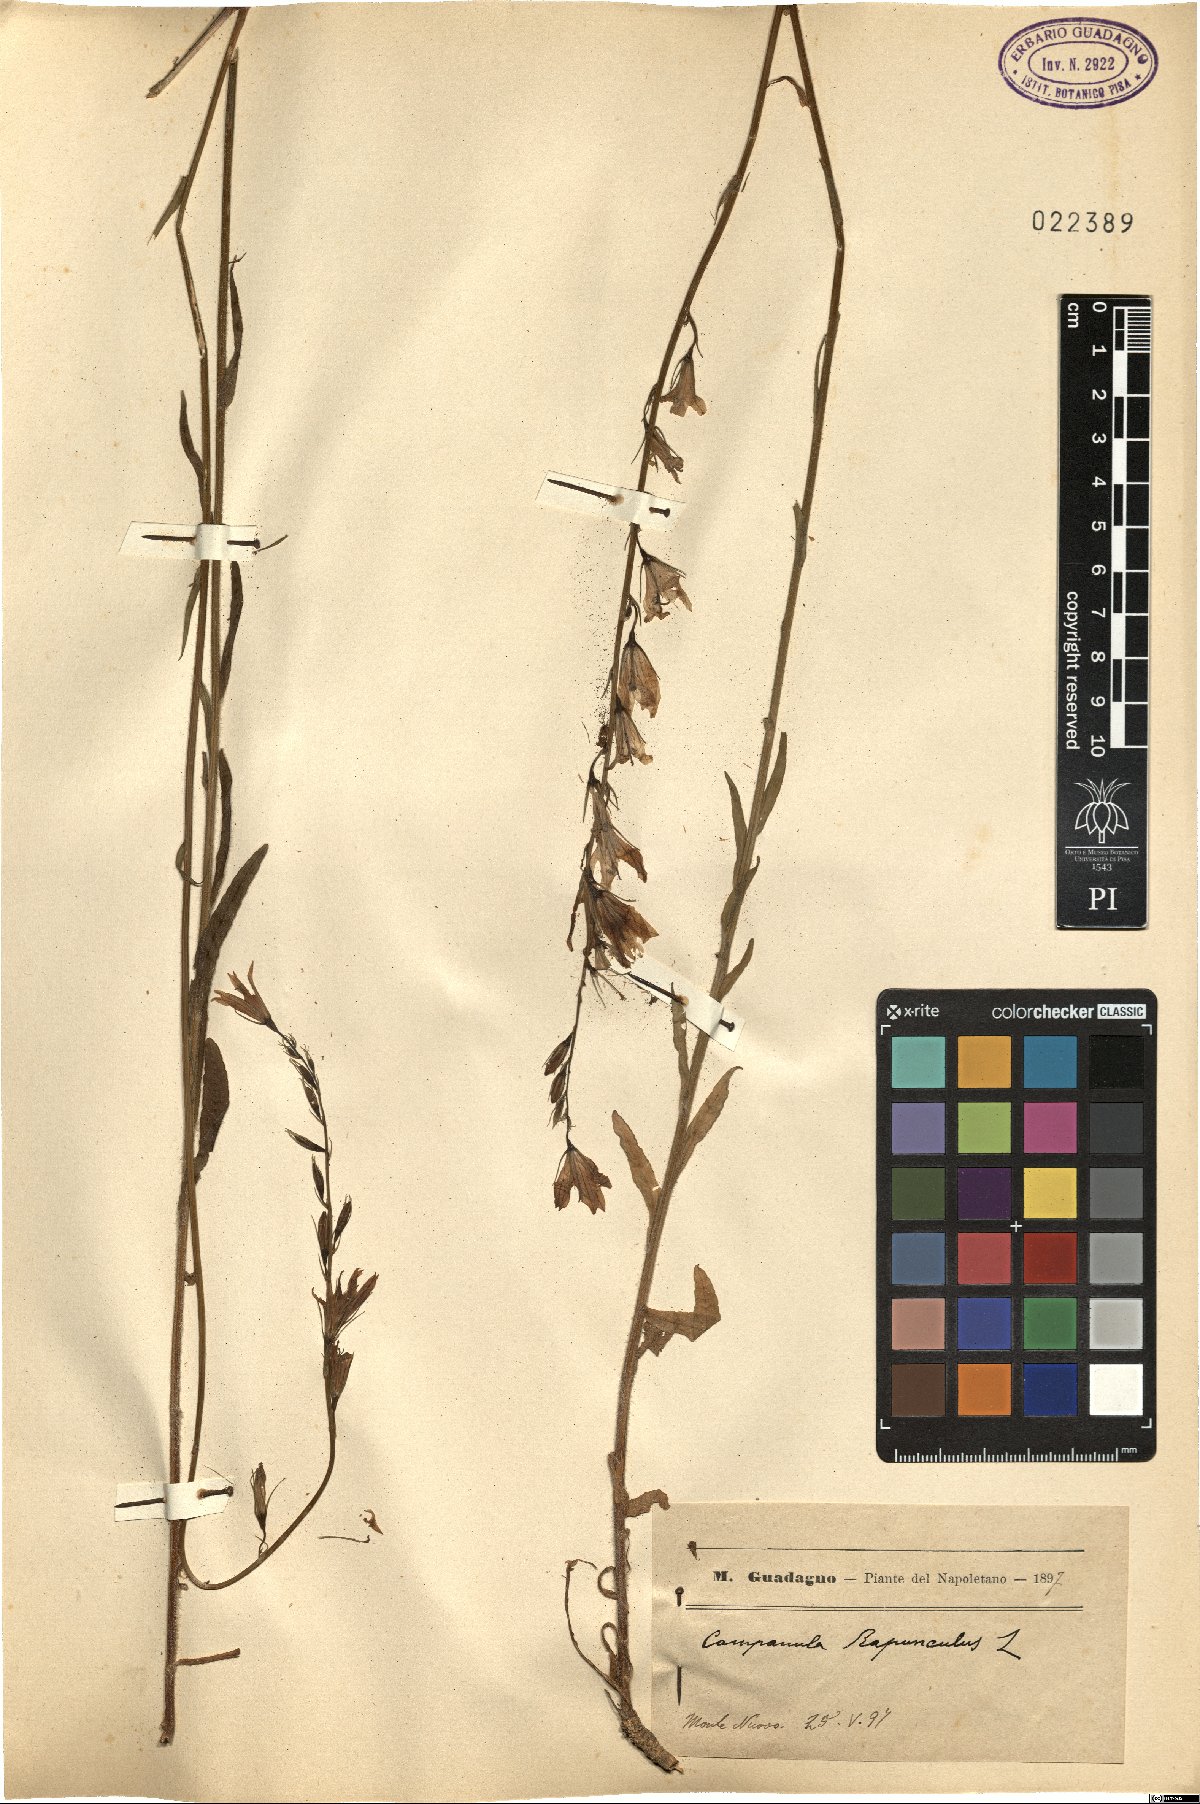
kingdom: Plantae
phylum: Tracheophyta
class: Magnoliopsida
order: Asterales
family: Campanulaceae
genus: Campanula
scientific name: Campanula rapunculus
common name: Rampion bellflower
